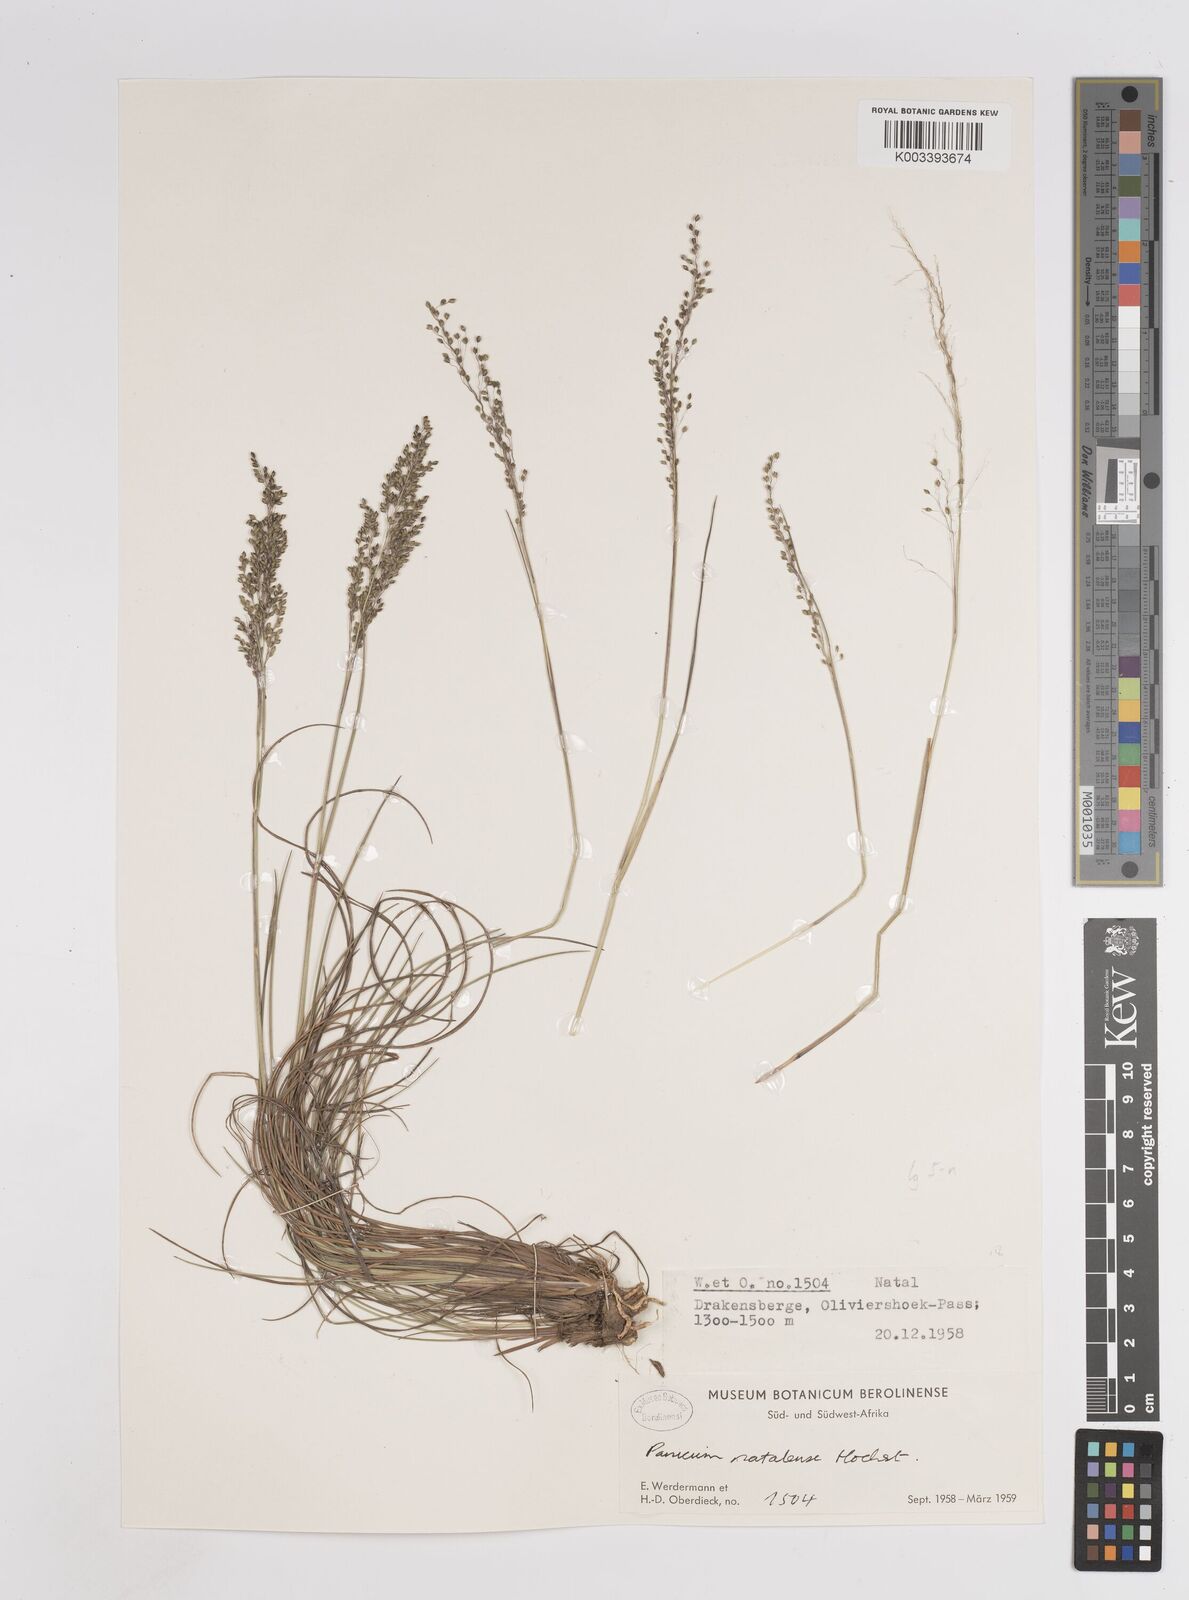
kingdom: Plantae
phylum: Tracheophyta
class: Liliopsida
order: Poales
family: Poaceae
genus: Trichanthecium
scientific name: Trichanthecium natalense
